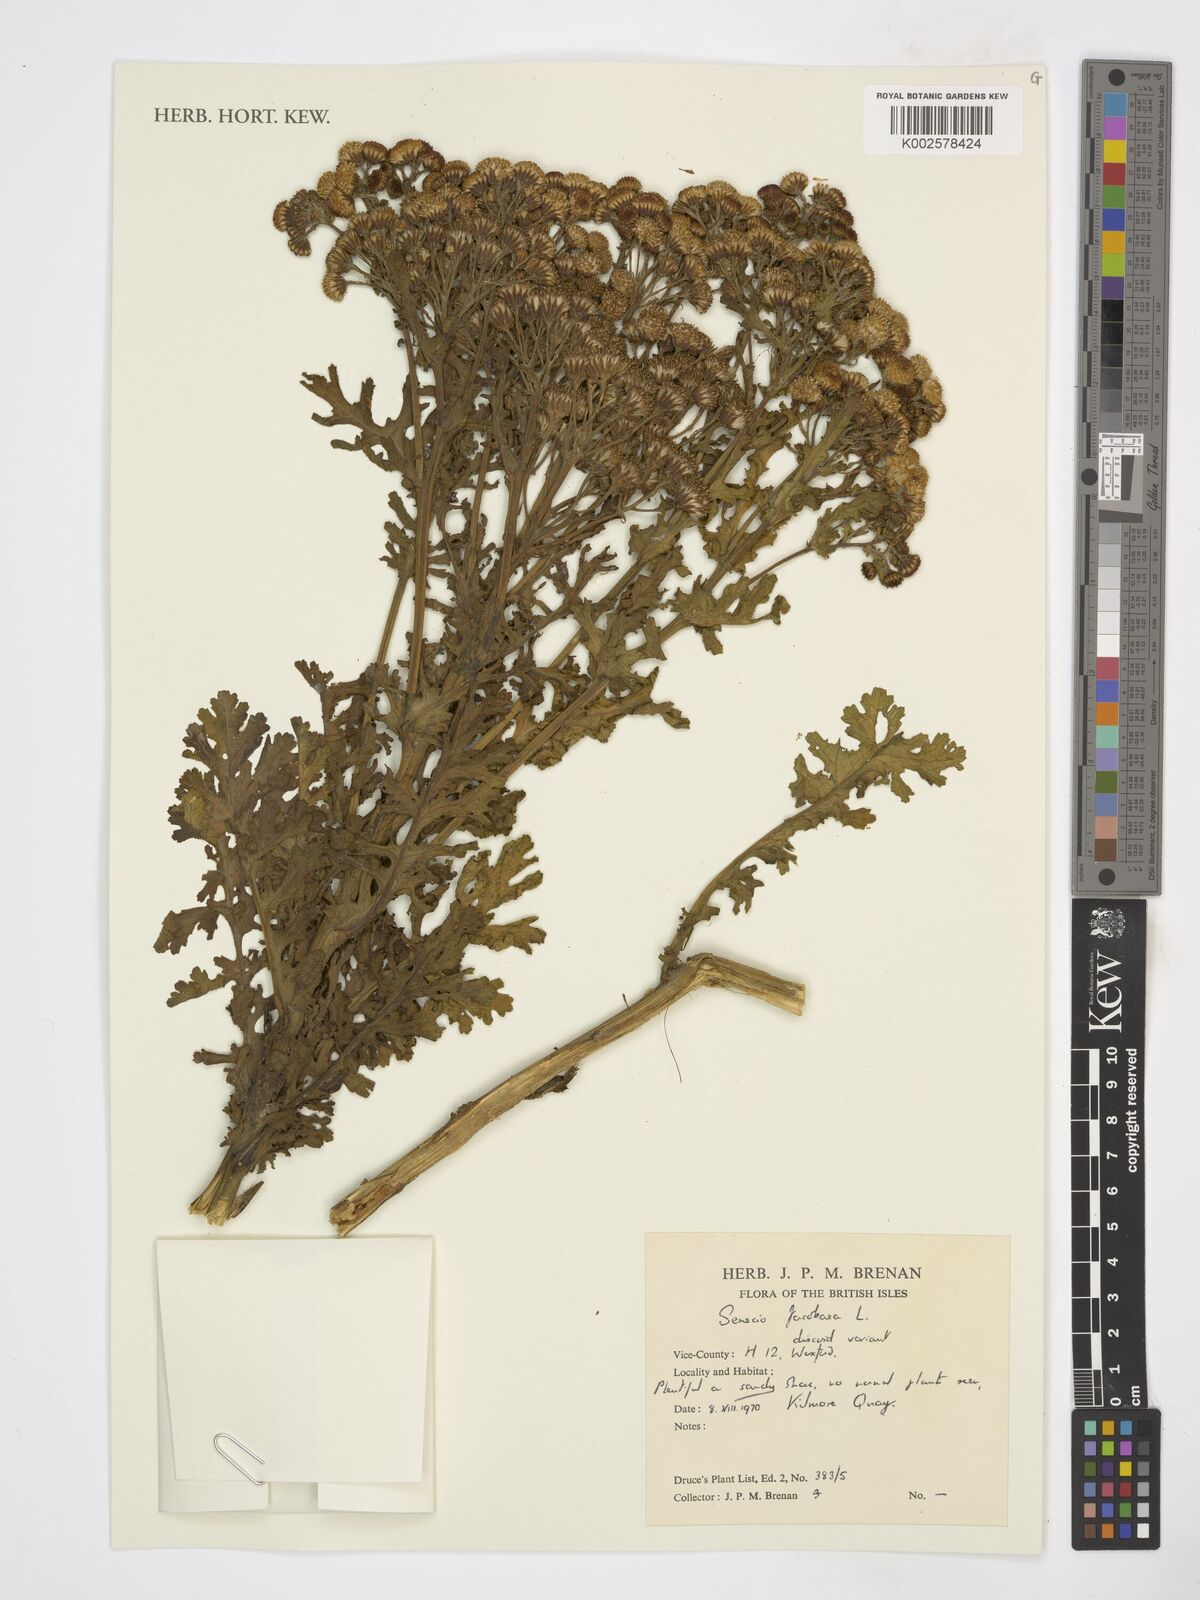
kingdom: Plantae
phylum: Tracheophyta
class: Magnoliopsida
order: Asterales
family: Asteraceae
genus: Jacobaea
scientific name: Jacobaea vulgaris
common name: Stinking willie
